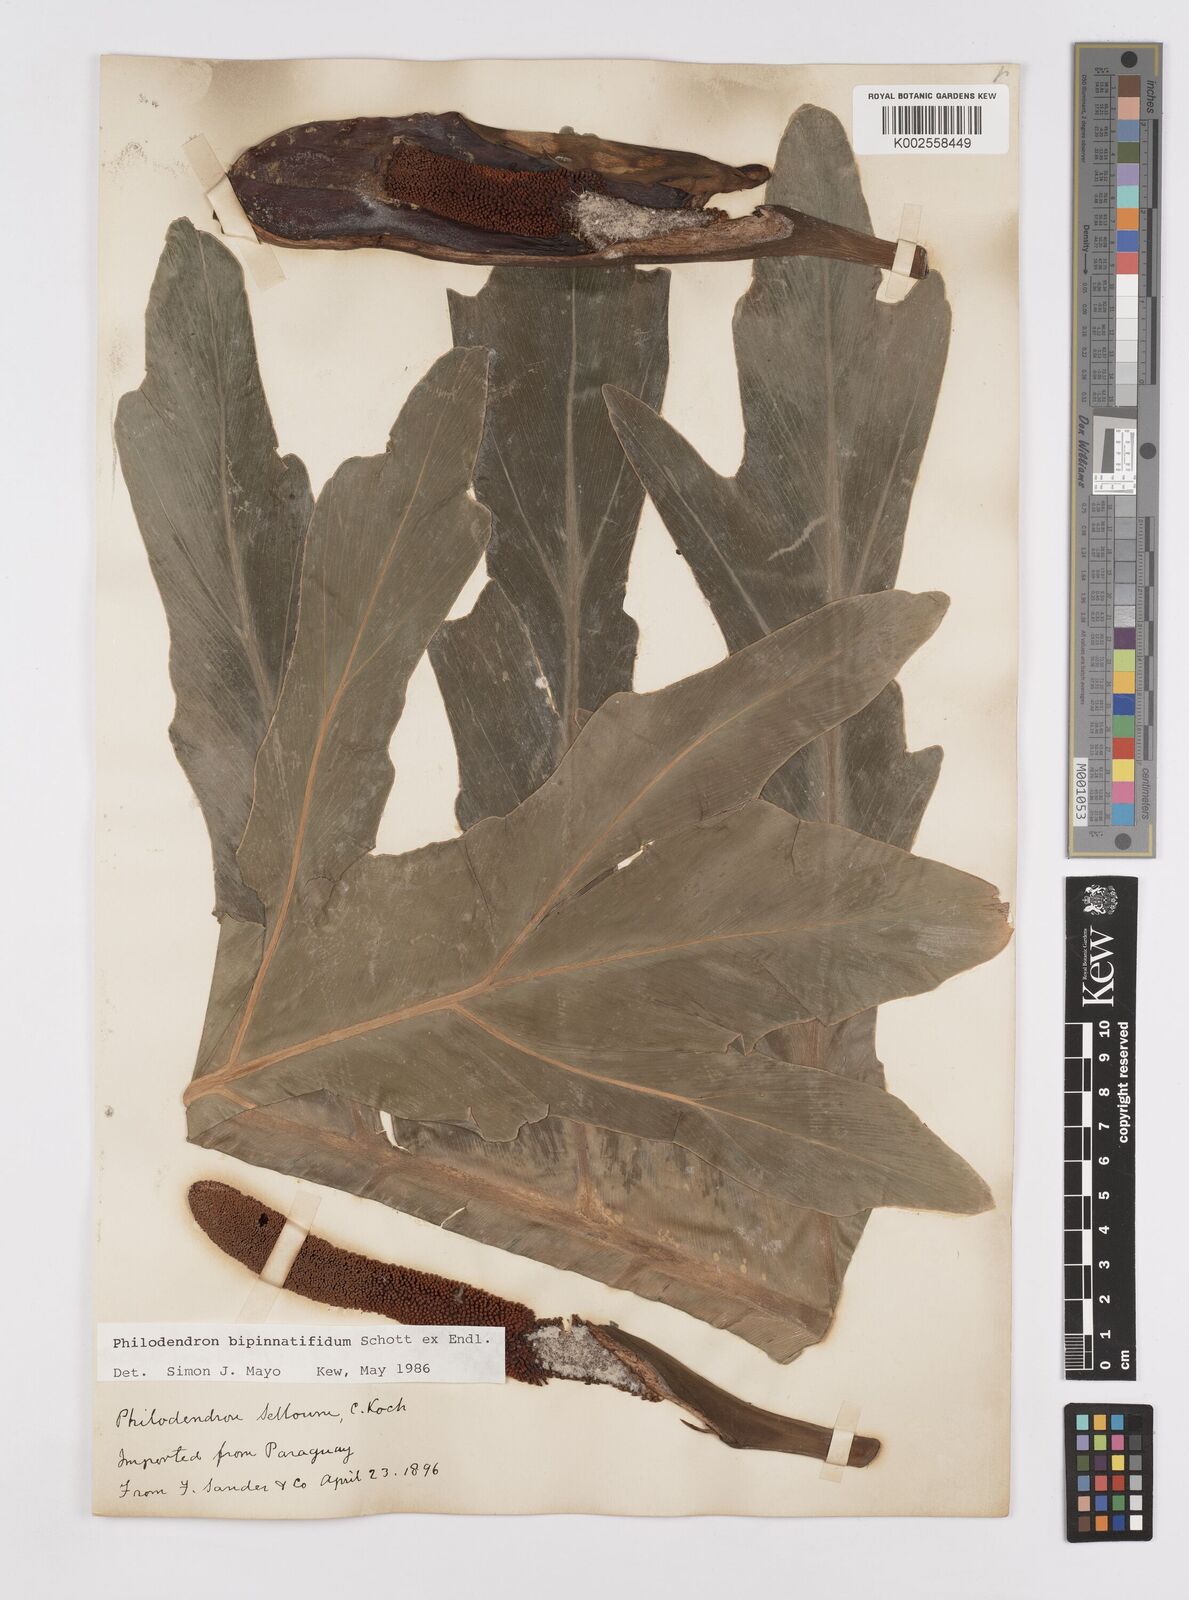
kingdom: Plantae
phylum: Tracheophyta
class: Liliopsida
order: Alismatales
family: Araceae
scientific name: Araceae
